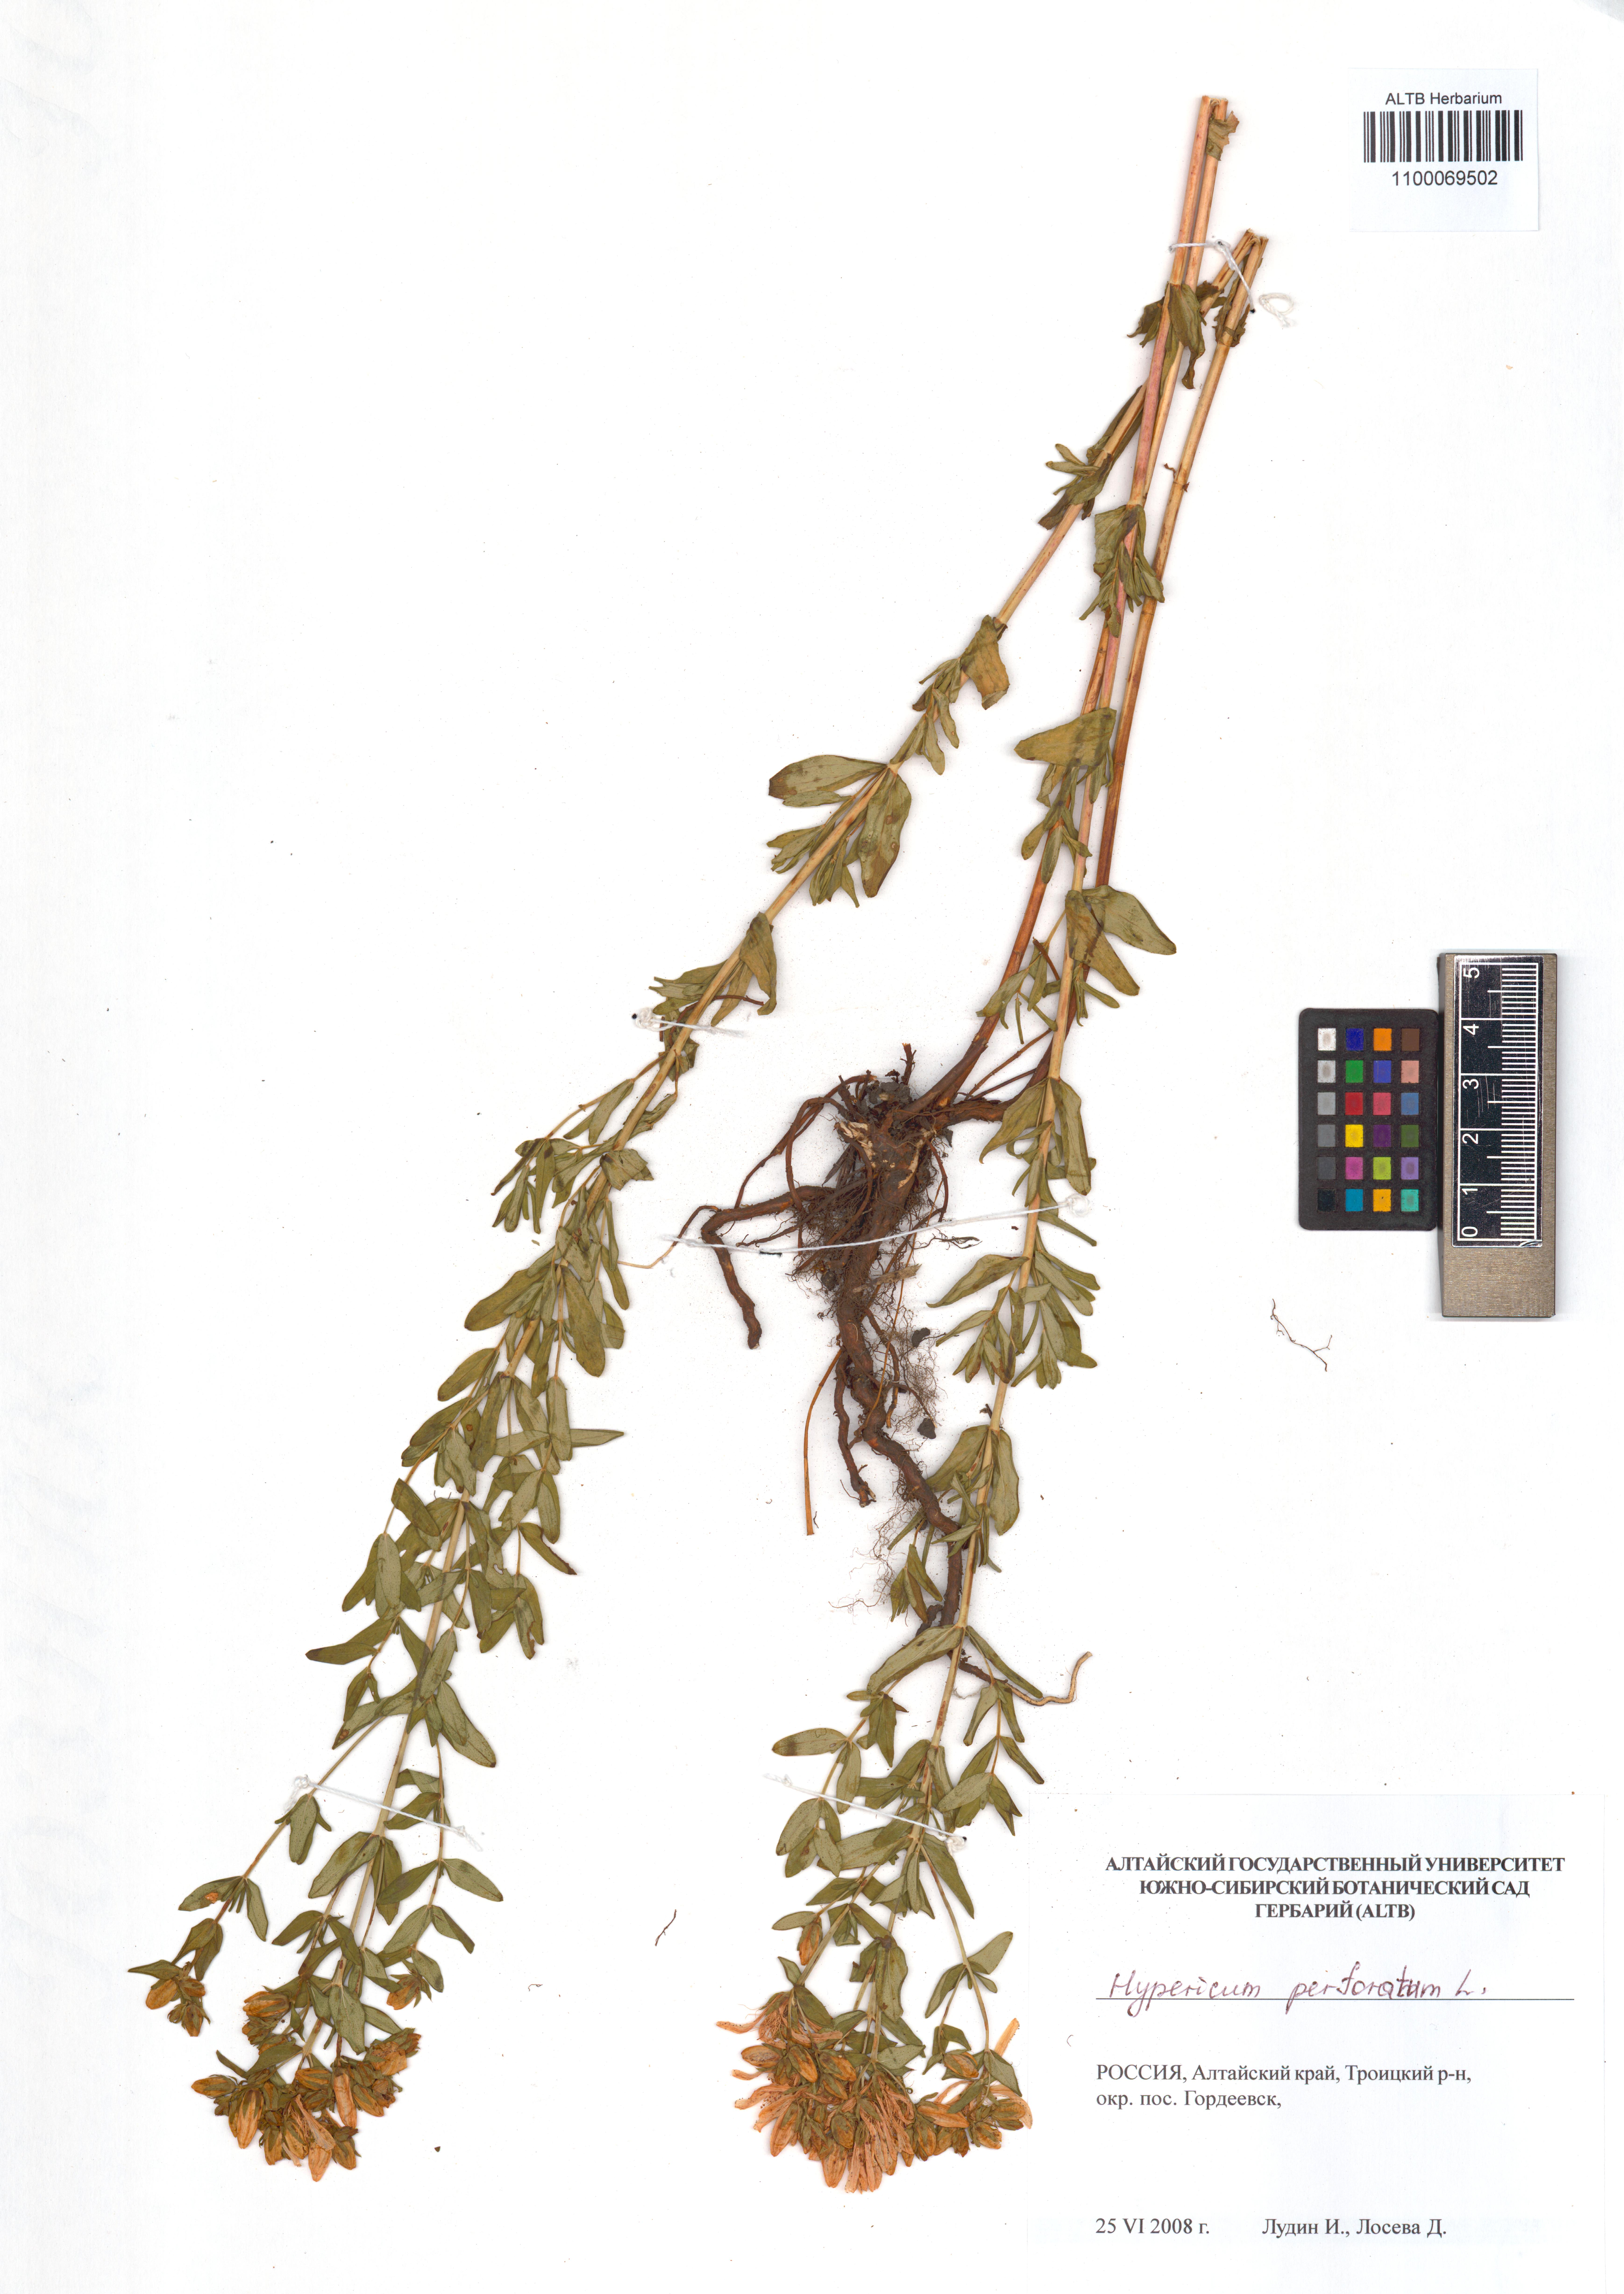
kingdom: Plantae
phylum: Tracheophyta
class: Magnoliopsida
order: Malpighiales
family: Hypericaceae
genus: Hypericum
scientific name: Hypericum perforatum
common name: Common st. johnswort
